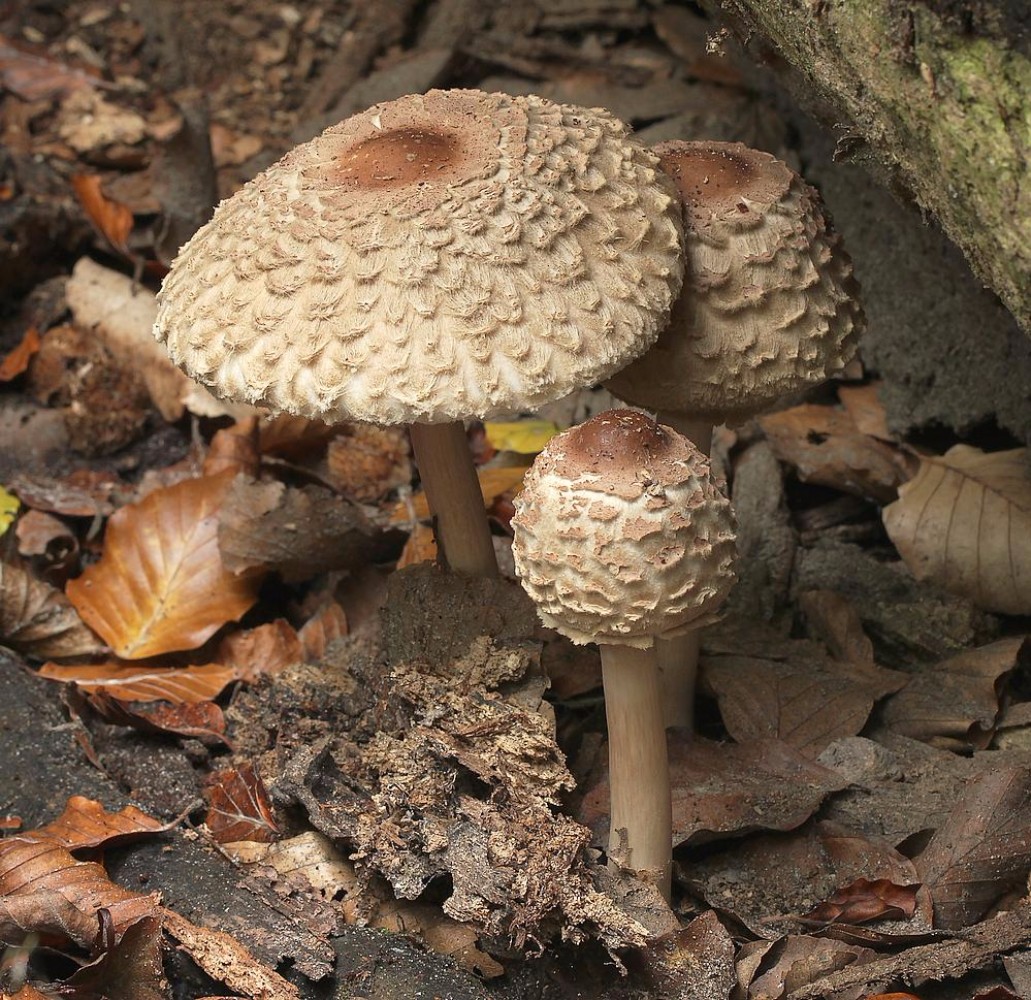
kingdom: Fungi
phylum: Basidiomycota
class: Agaricomycetes
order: Agaricales
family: Agaricaceae
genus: Chlorophyllum
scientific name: Chlorophyllum olivieri
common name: almindelig rabarberhat
